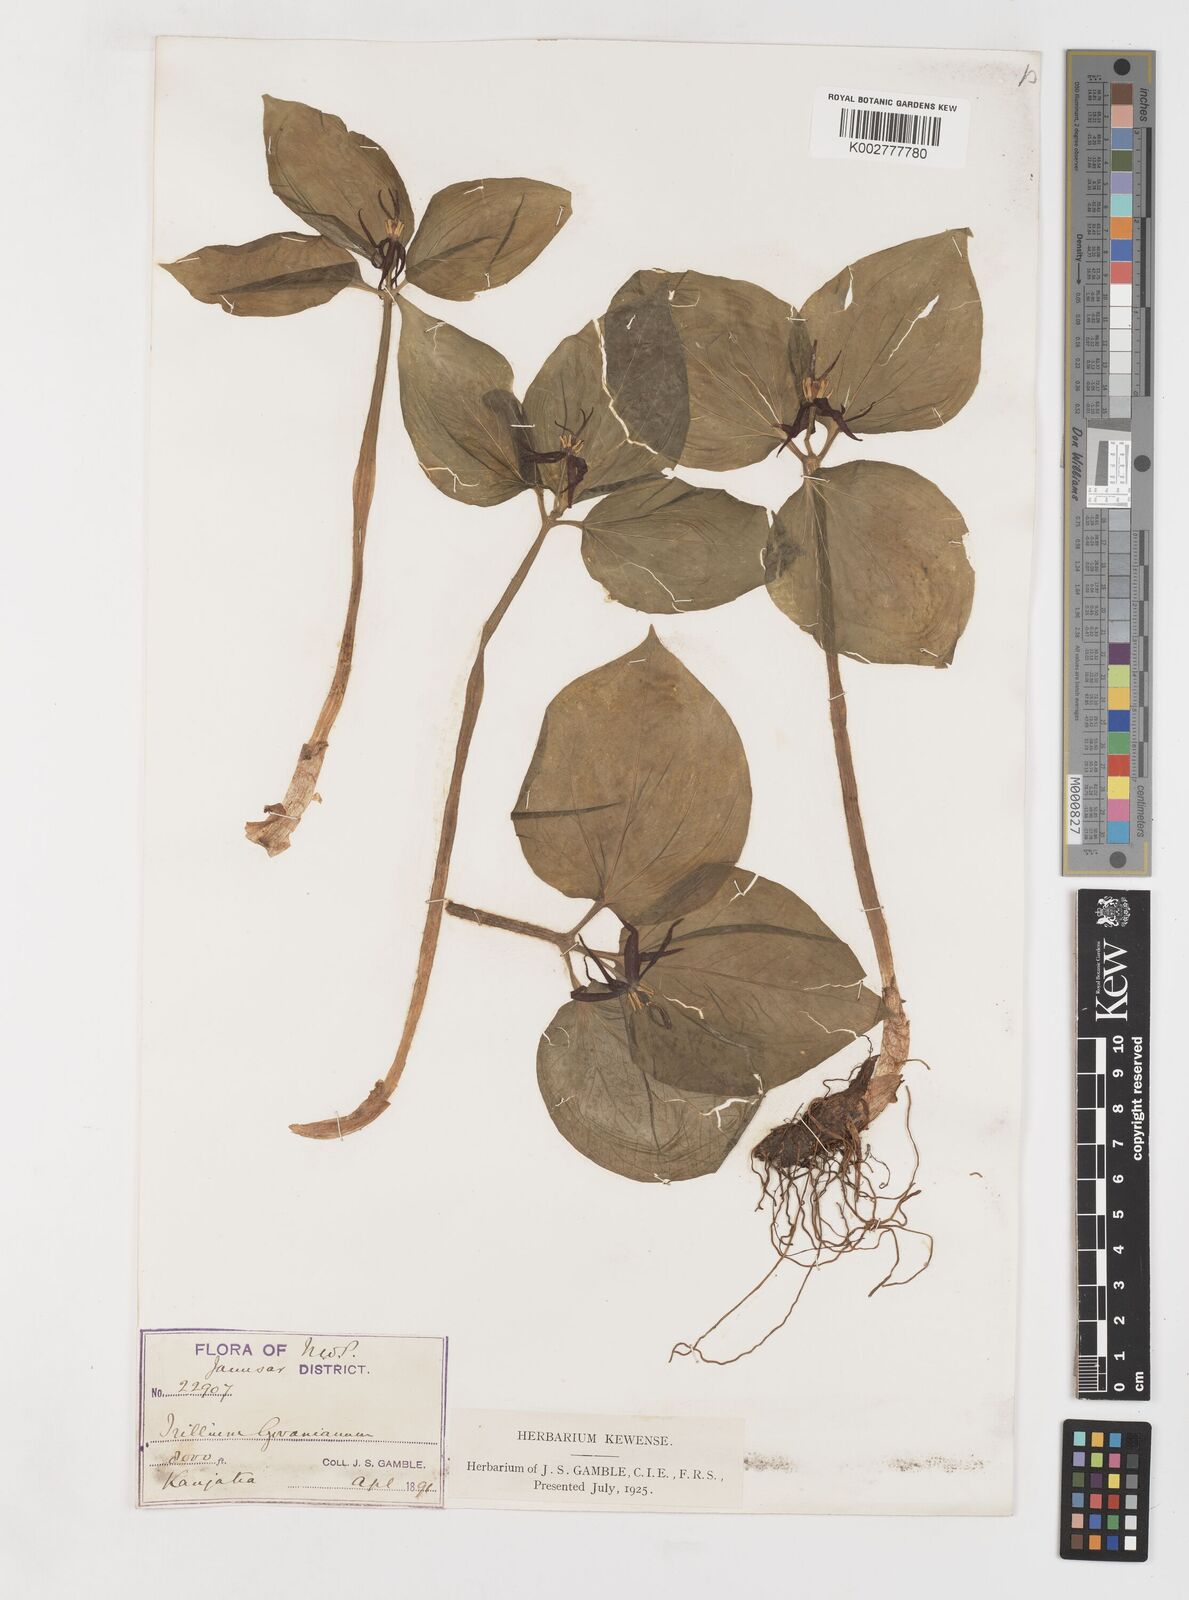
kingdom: Plantae
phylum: Tracheophyta
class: Liliopsida
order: Liliales
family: Melanthiaceae
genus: Trillium
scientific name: Trillium govanianum
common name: Himalayan trillium
